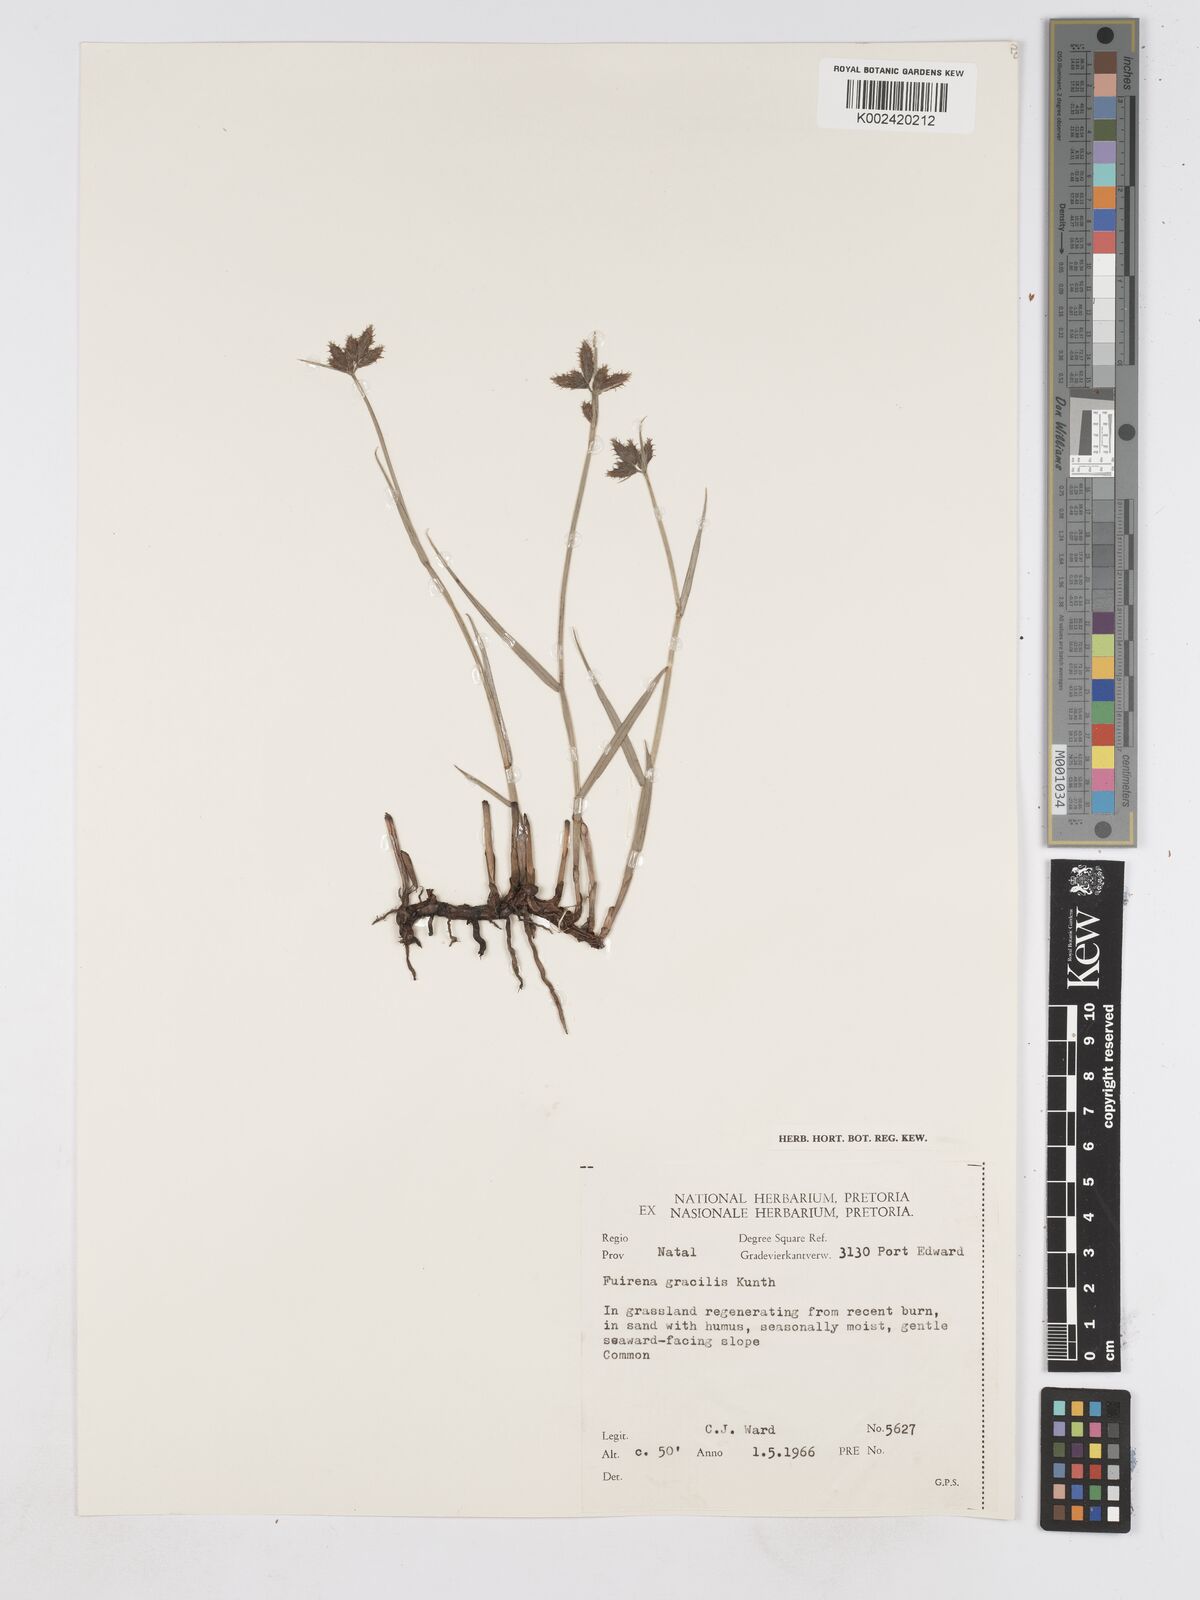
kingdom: Plantae
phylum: Tracheophyta
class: Liliopsida
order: Poales
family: Cyperaceae
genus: Fuirena
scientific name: Fuirena coerulescens
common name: Blue umbrella-sedge
